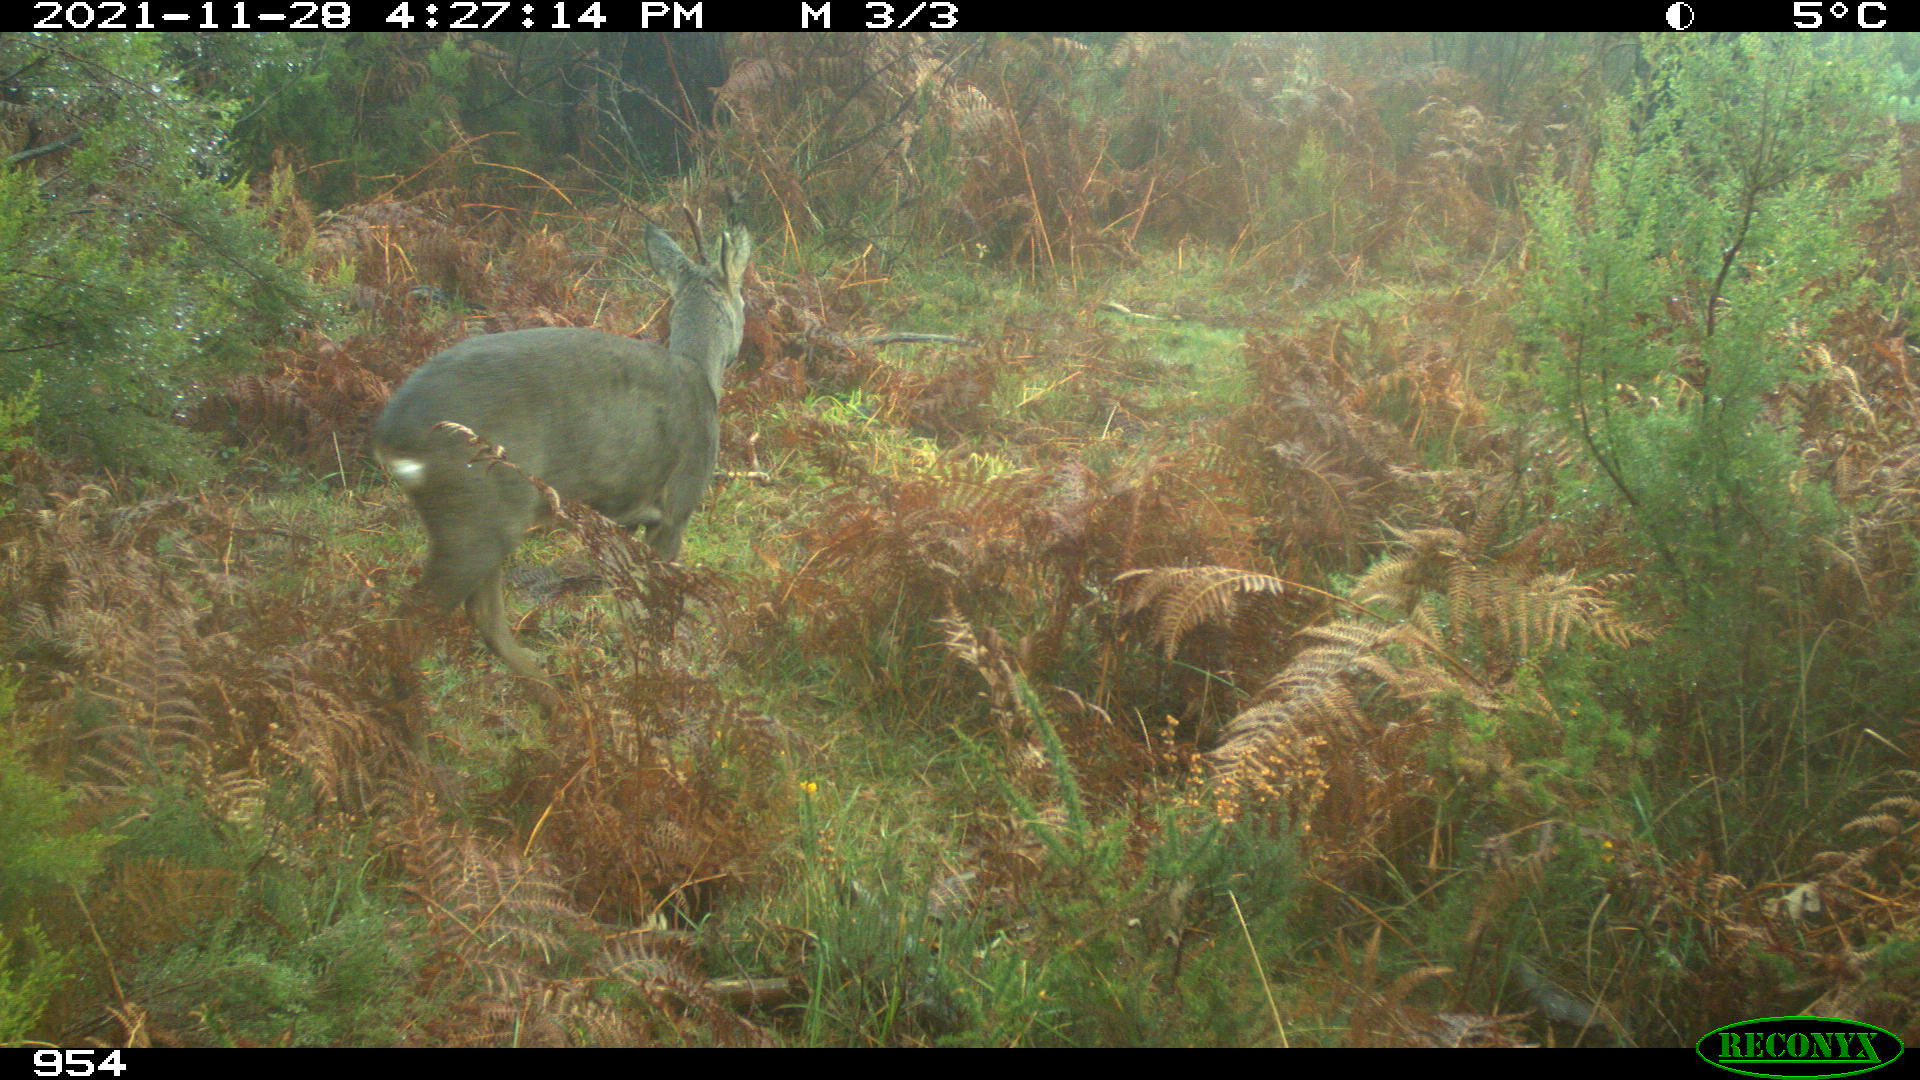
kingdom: Animalia
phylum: Chordata
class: Mammalia
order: Artiodactyla
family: Cervidae
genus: Capreolus
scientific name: Capreolus capreolus
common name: Western roe deer
